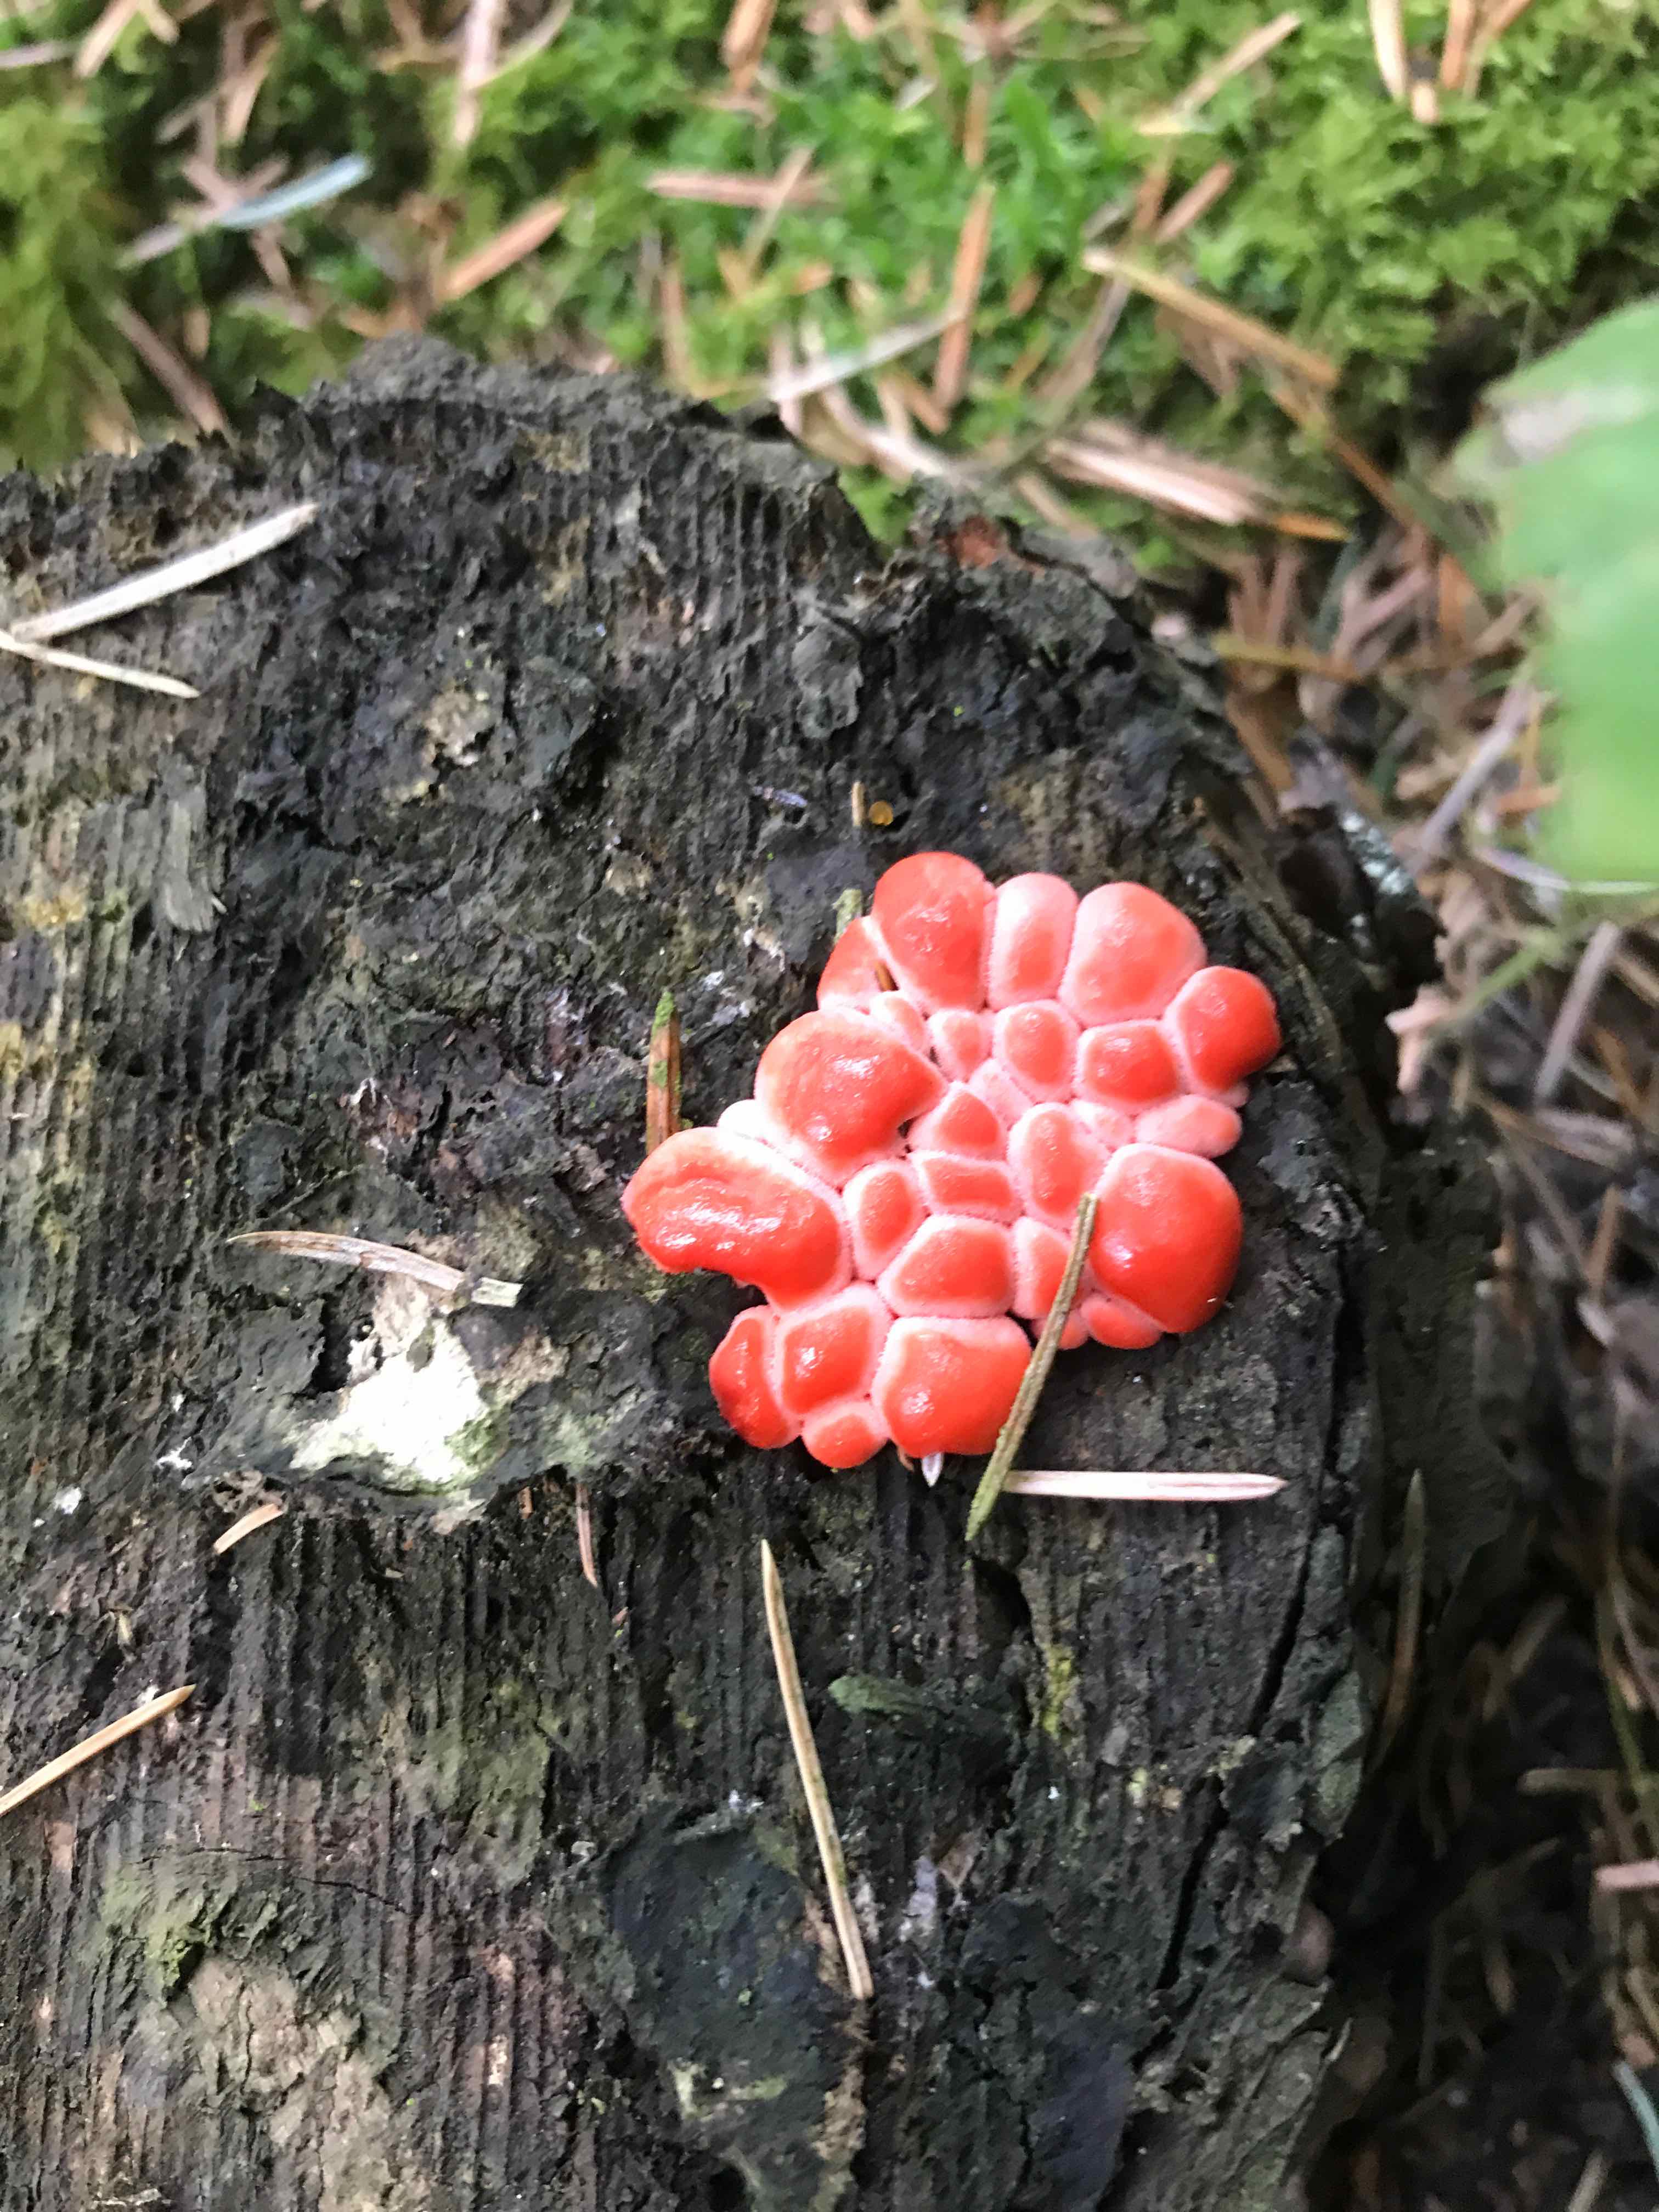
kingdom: Protozoa
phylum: Mycetozoa
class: Myxomycetes
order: Cribrariales
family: Tubiferaceae
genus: Lycogala
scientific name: Lycogala epidendrum
